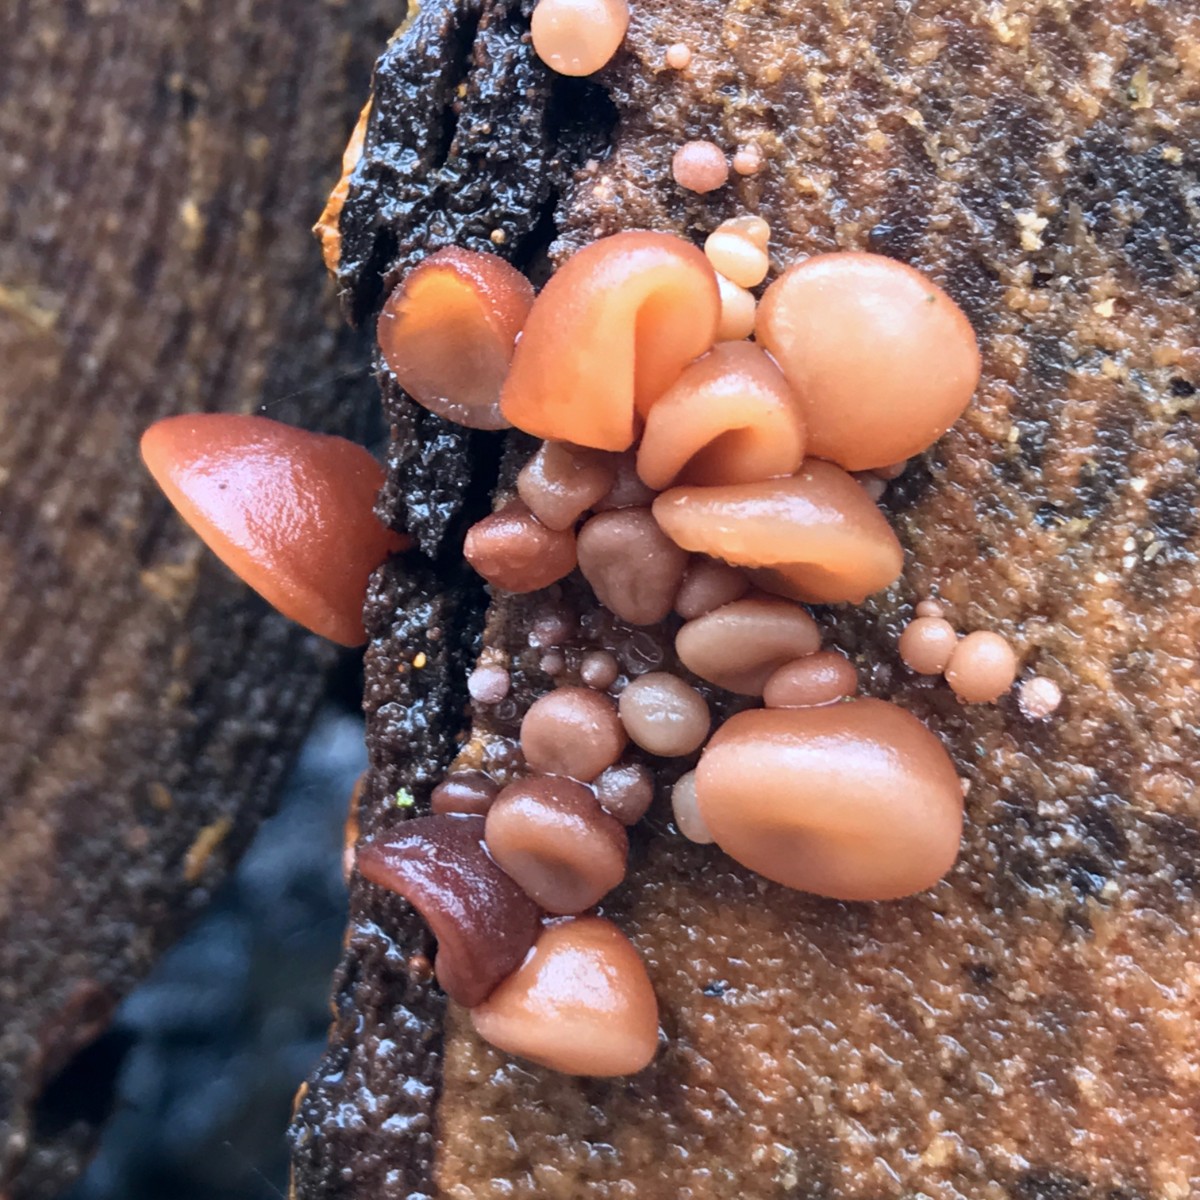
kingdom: Fungi
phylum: Basidiomycota
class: Agaricomycetes
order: Auriculariales
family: Auriculariaceae
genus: Auricularia
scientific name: Auricularia auricula-judae
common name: almindelig judasøre
